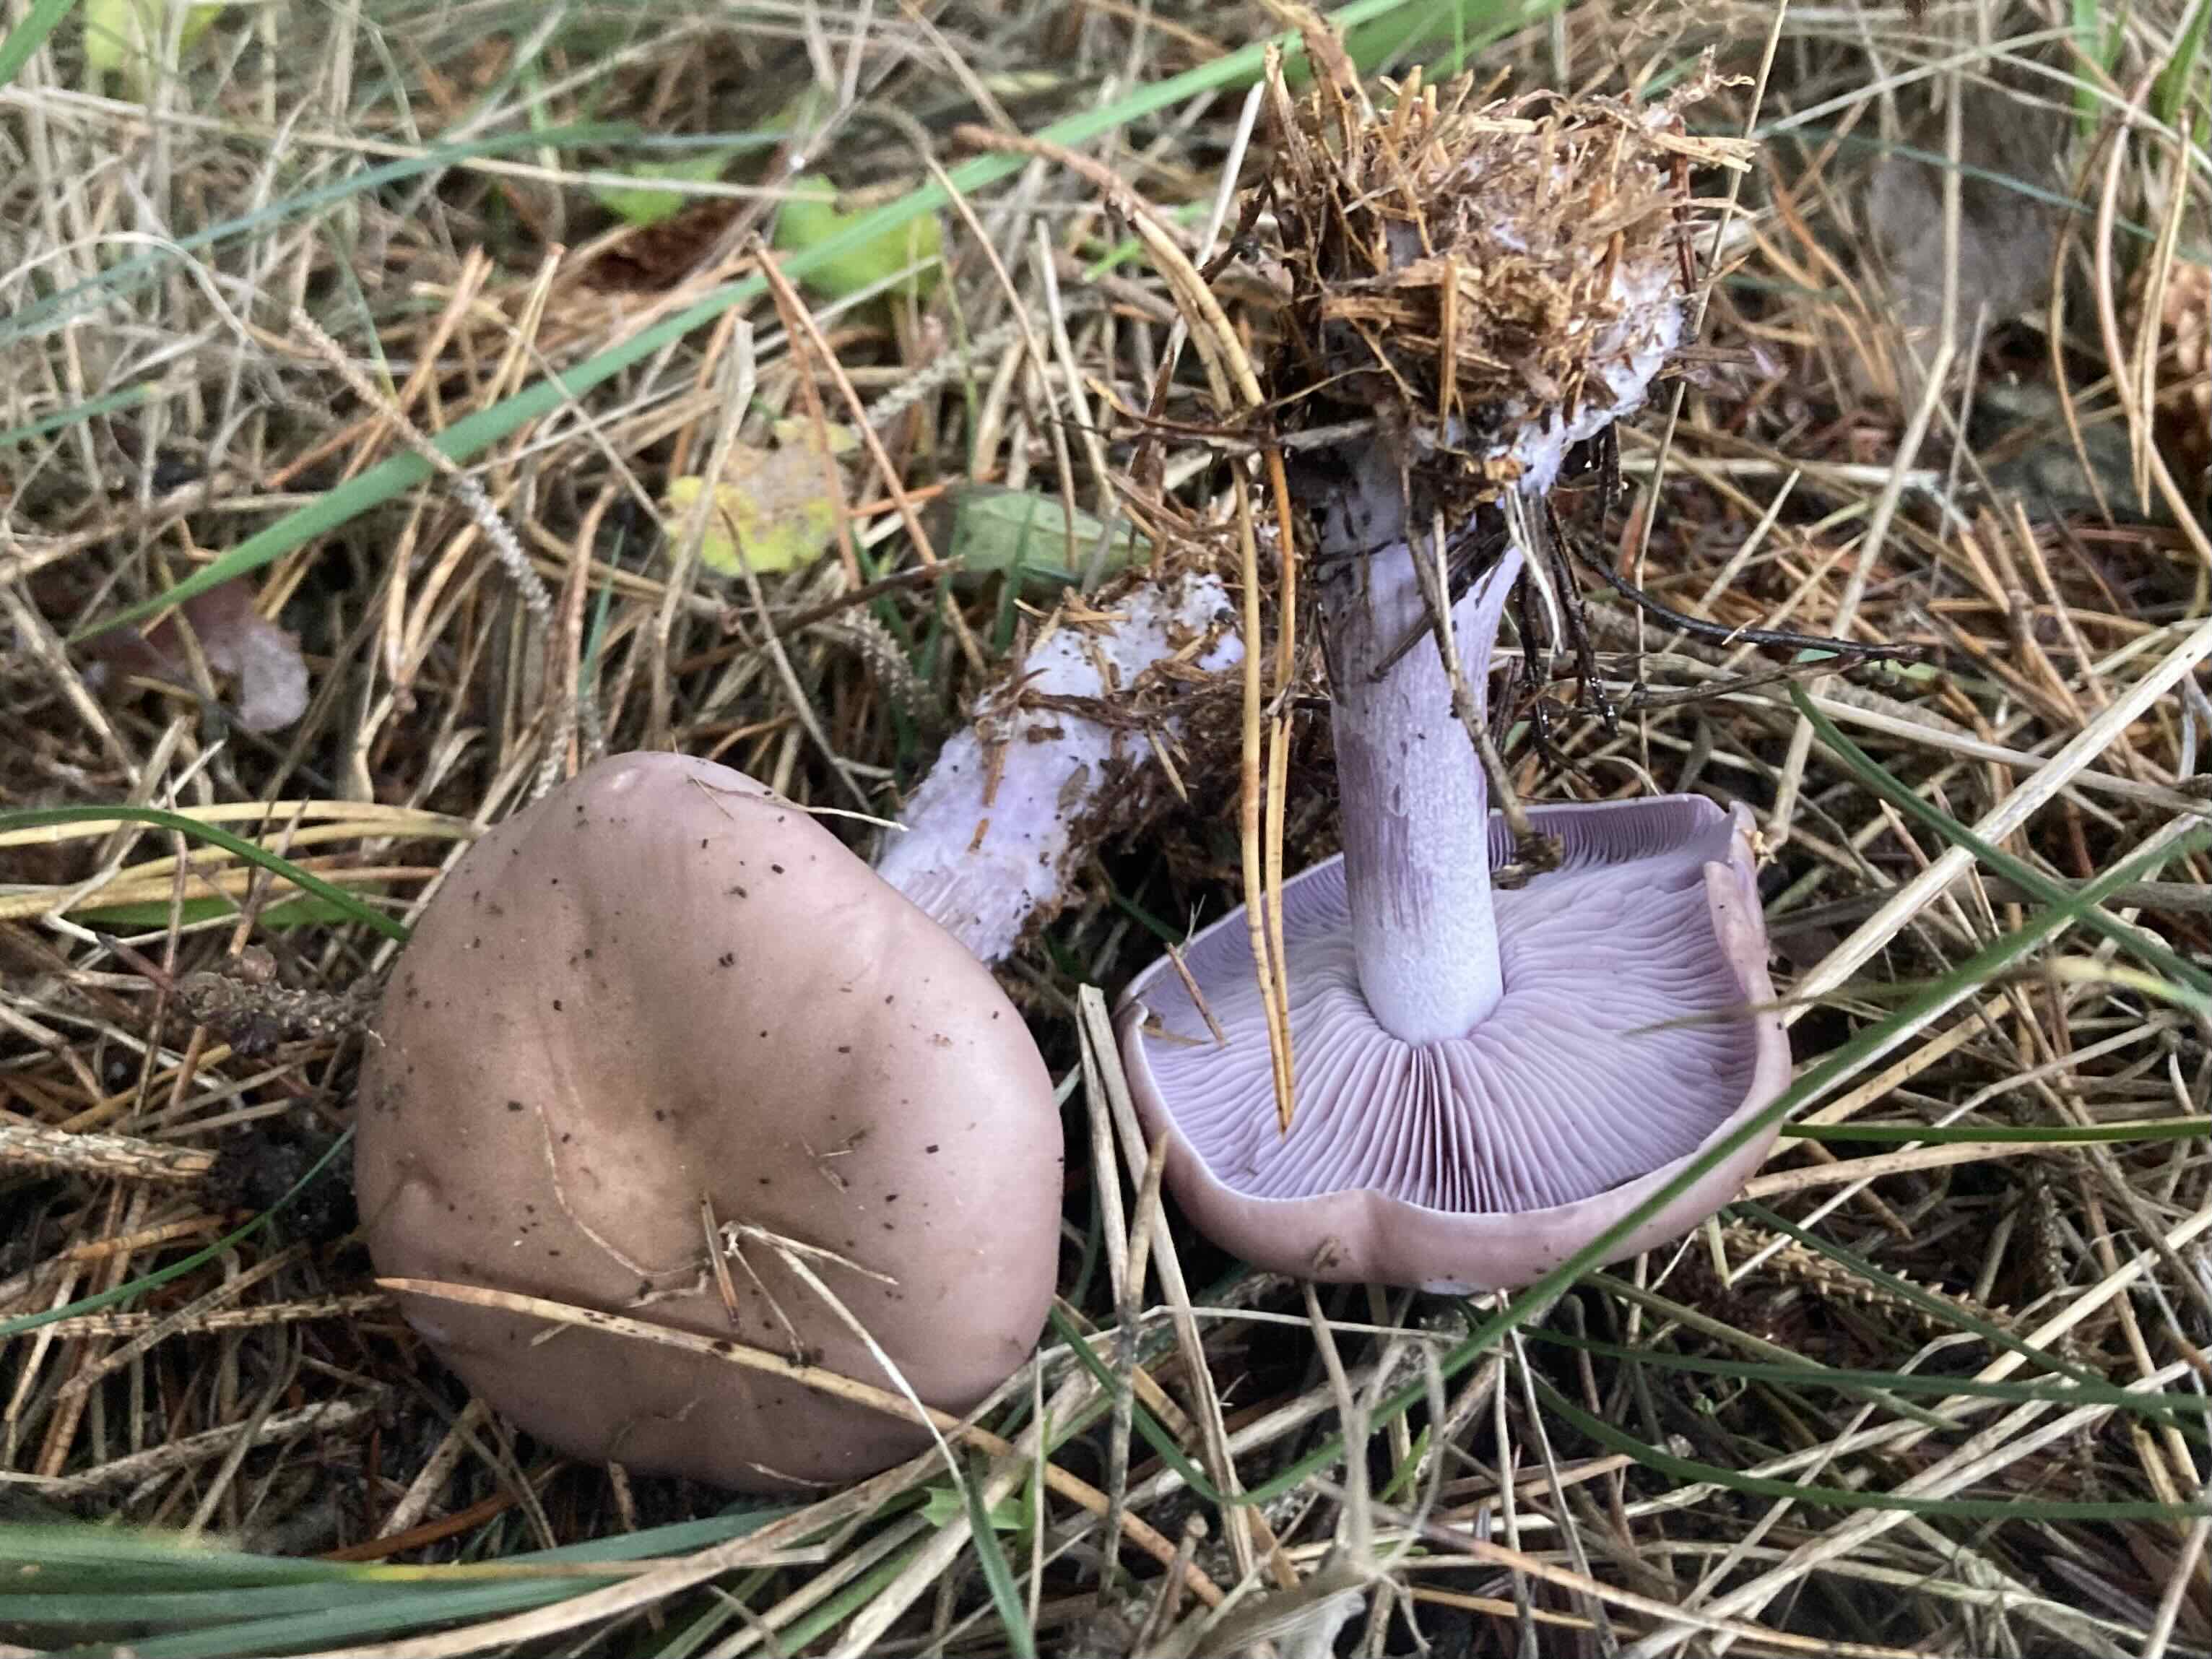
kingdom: Fungi
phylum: Basidiomycota
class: Agaricomycetes
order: Agaricales
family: Tricholomataceae
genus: Lepista
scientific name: Lepista nuda
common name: violet hekseringshat
